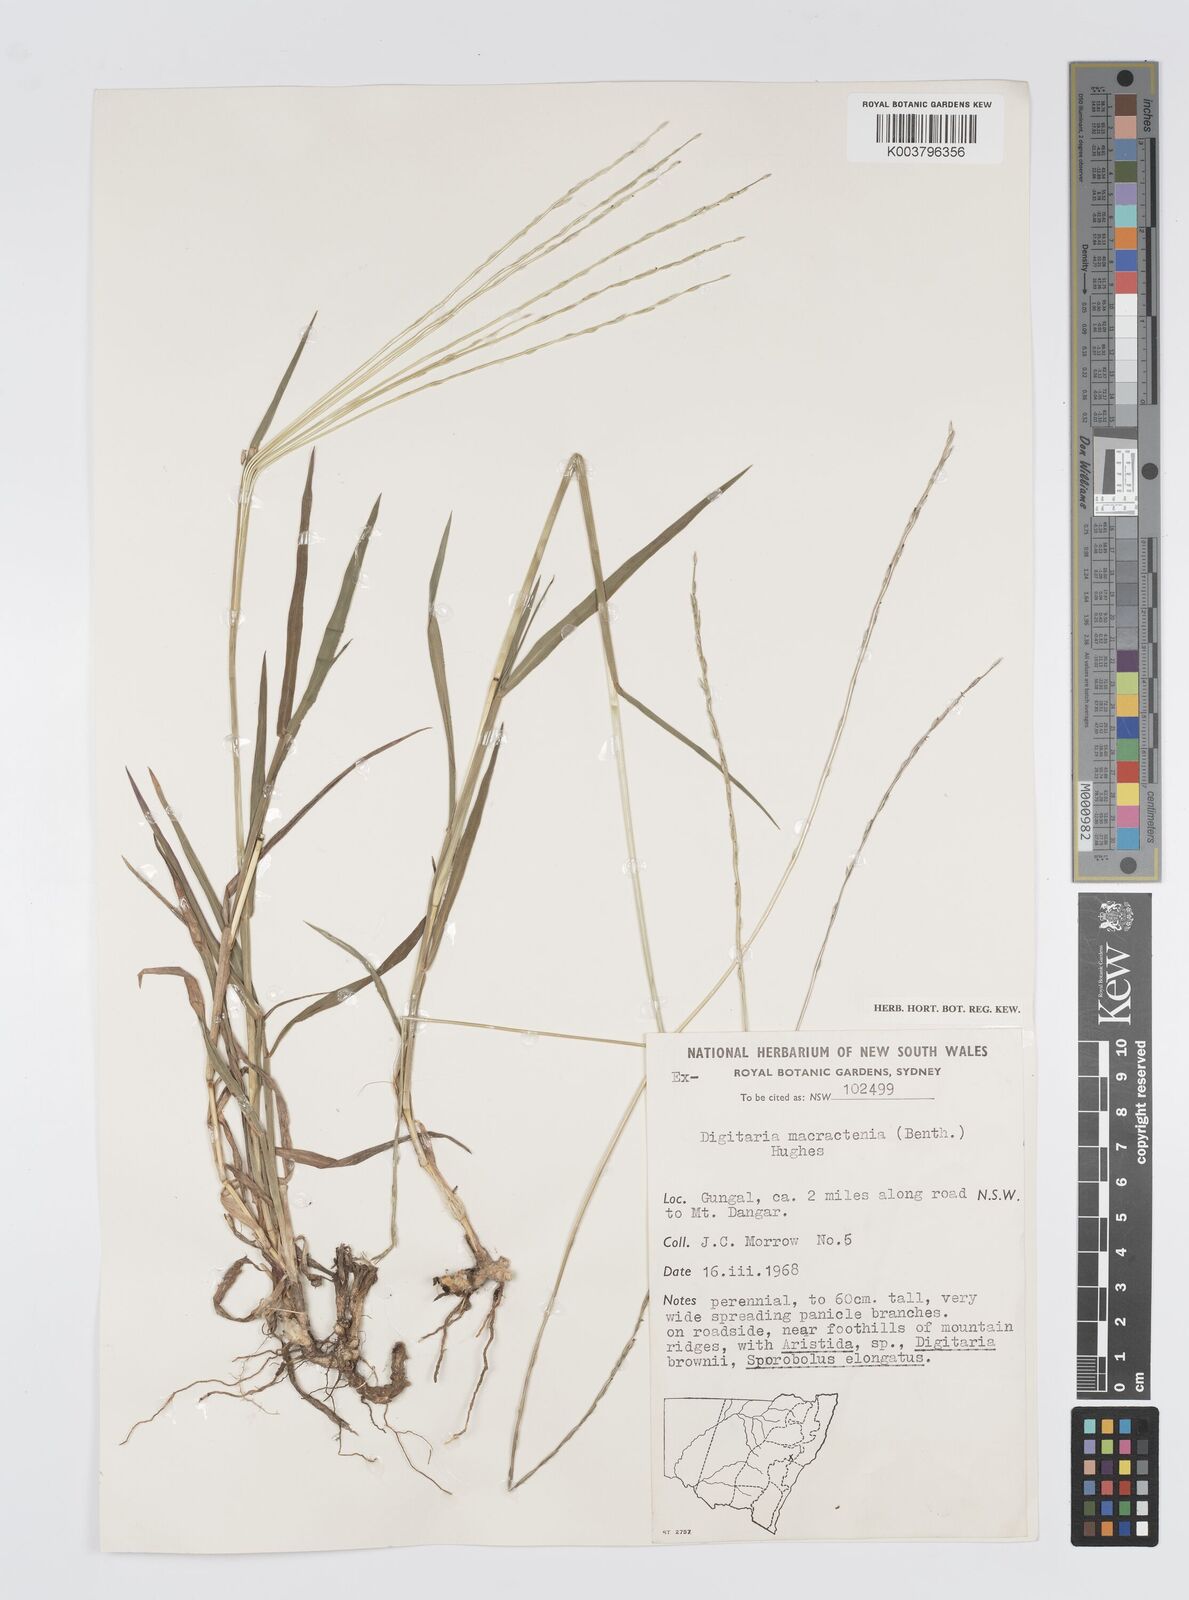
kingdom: Plantae
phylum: Tracheophyta
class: Liliopsida
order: Poales
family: Poaceae
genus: Digitaria
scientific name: Digitaria divaricatissima
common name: Crabgrass
